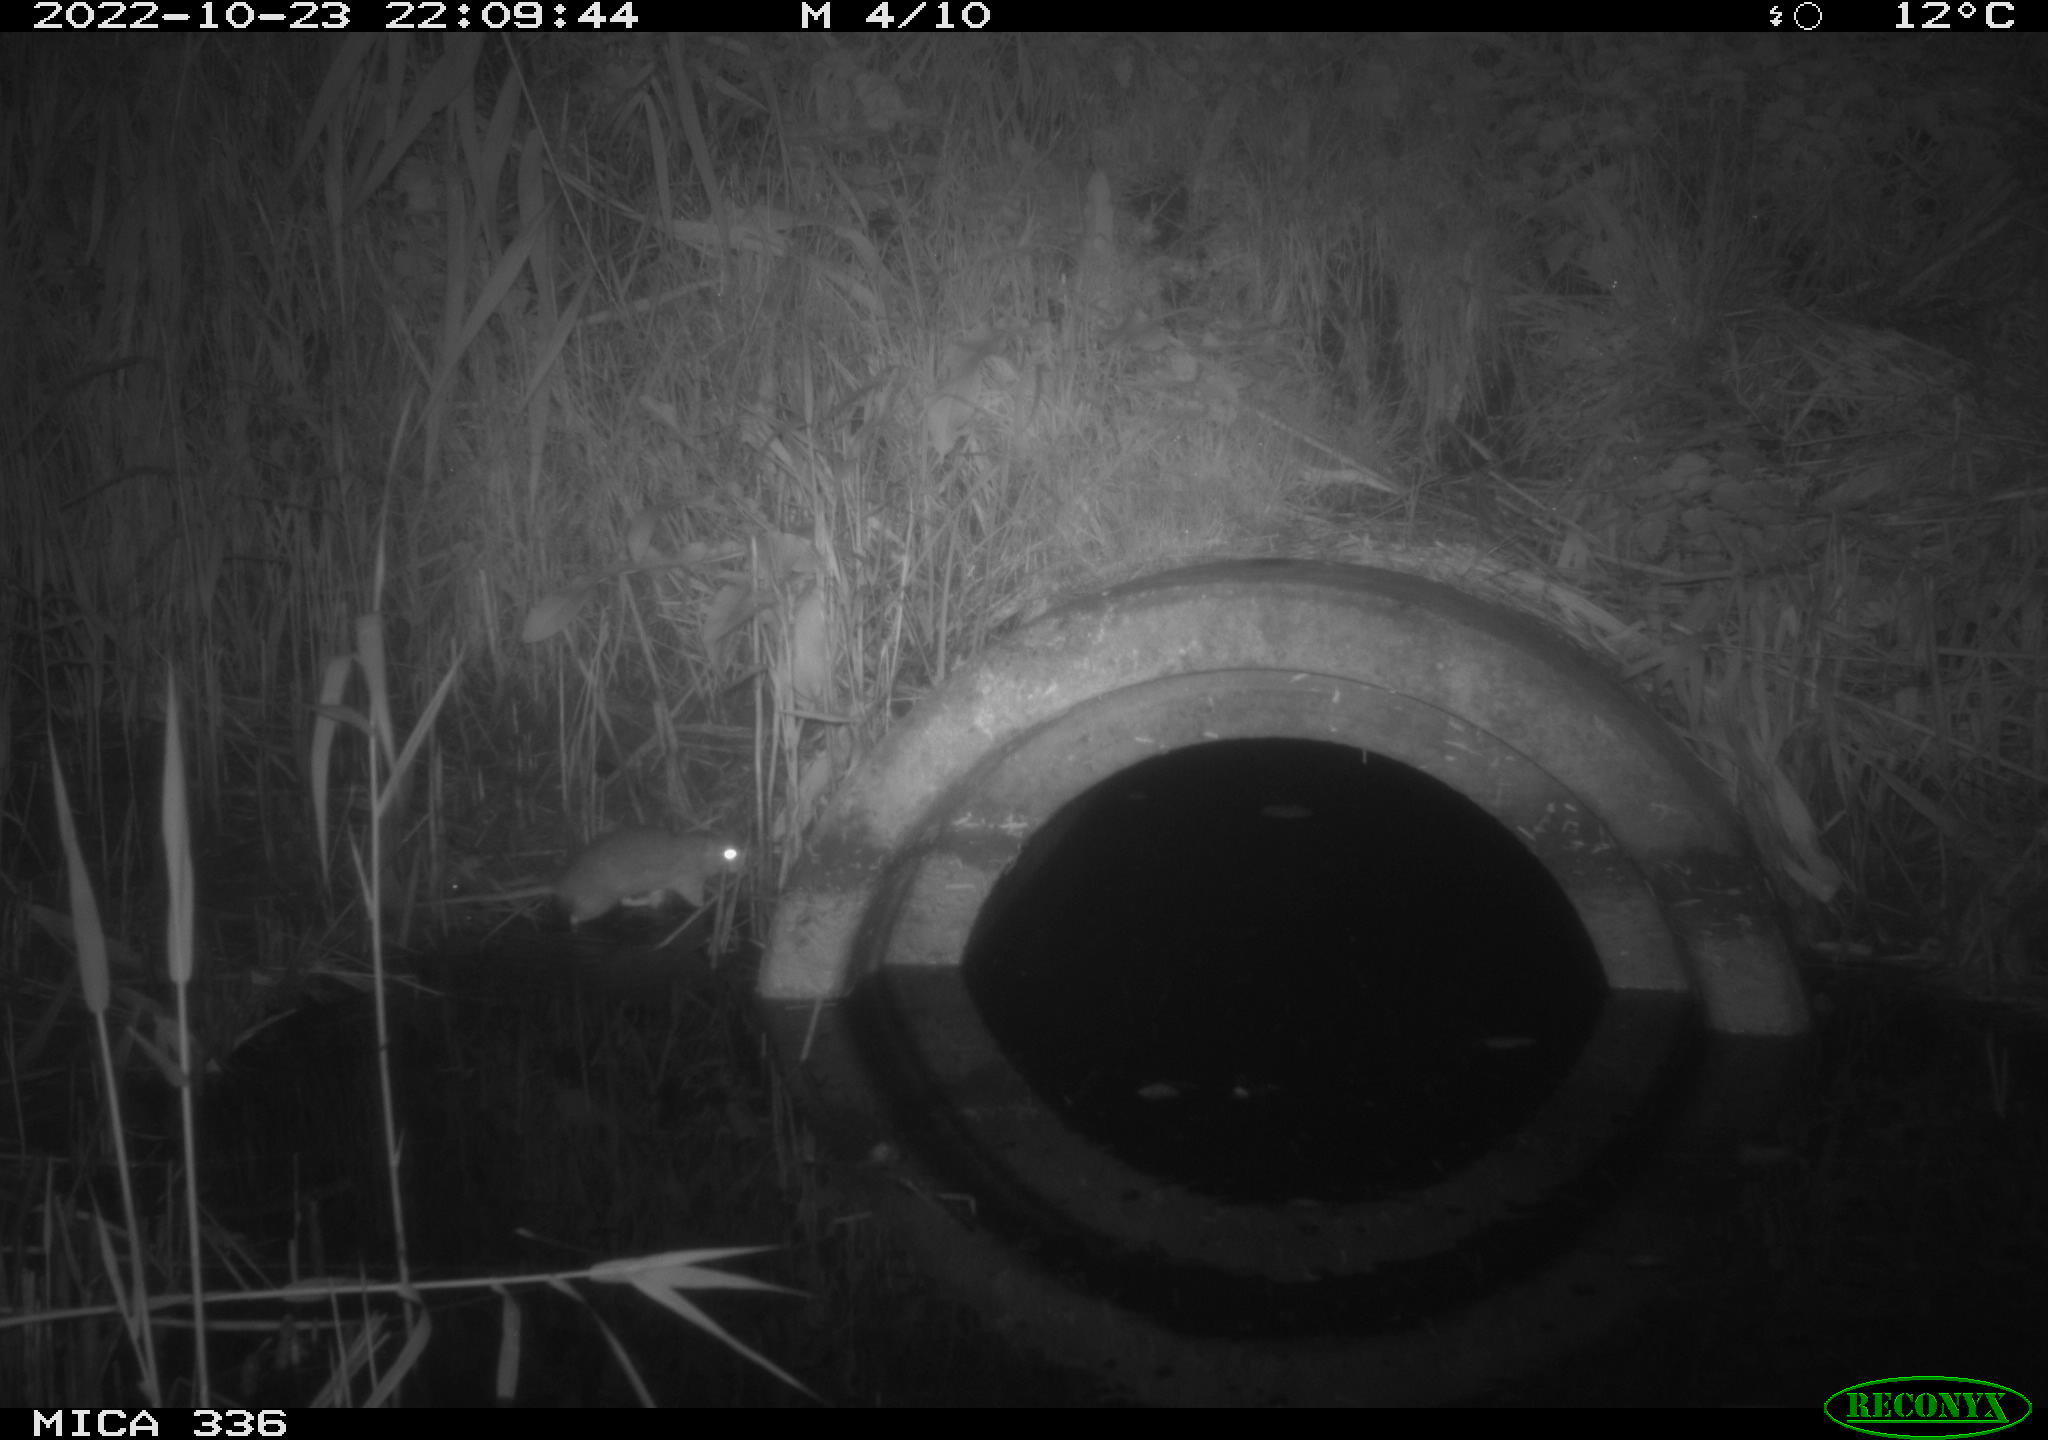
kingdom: Animalia
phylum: Chordata
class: Mammalia
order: Rodentia
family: Muridae
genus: Rattus
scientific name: Rattus norvegicus
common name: Brown rat
